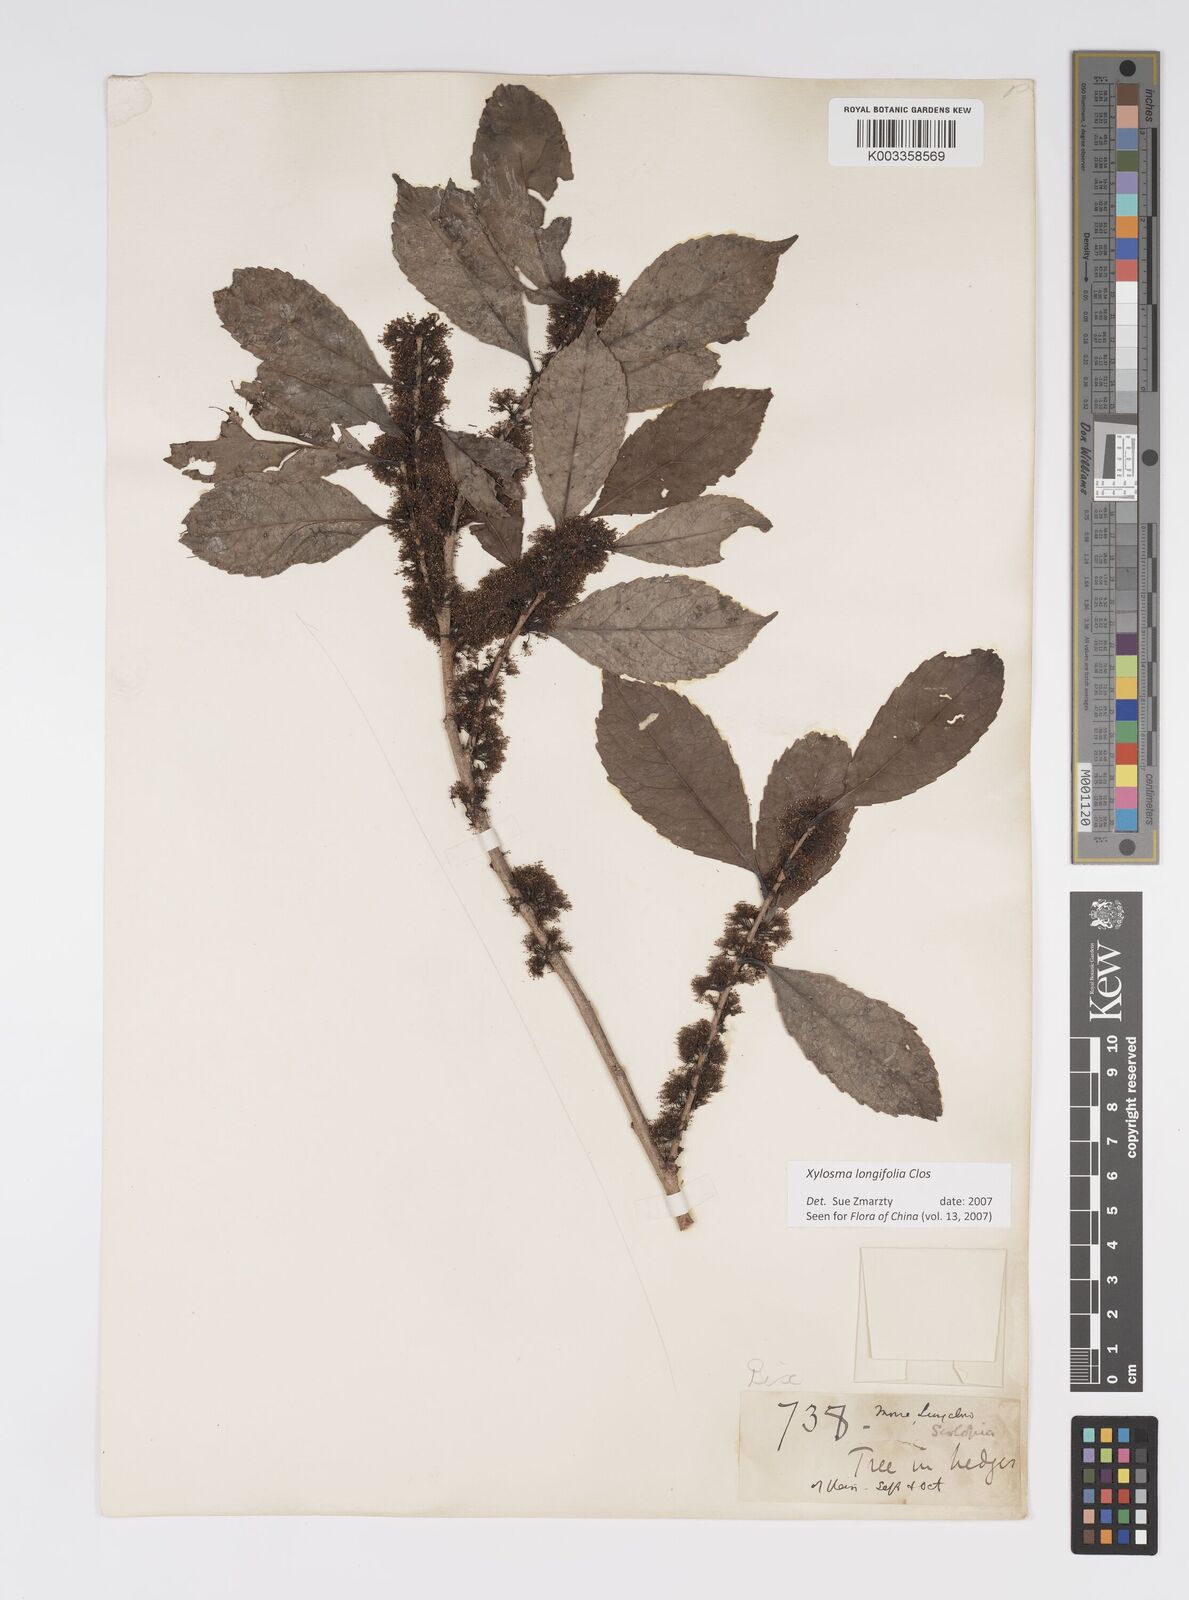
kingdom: Plantae
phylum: Tracheophyta
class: Magnoliopsida
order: Malpighiales
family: Salicaceae
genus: Xylosma
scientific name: Xylosma longifolia
